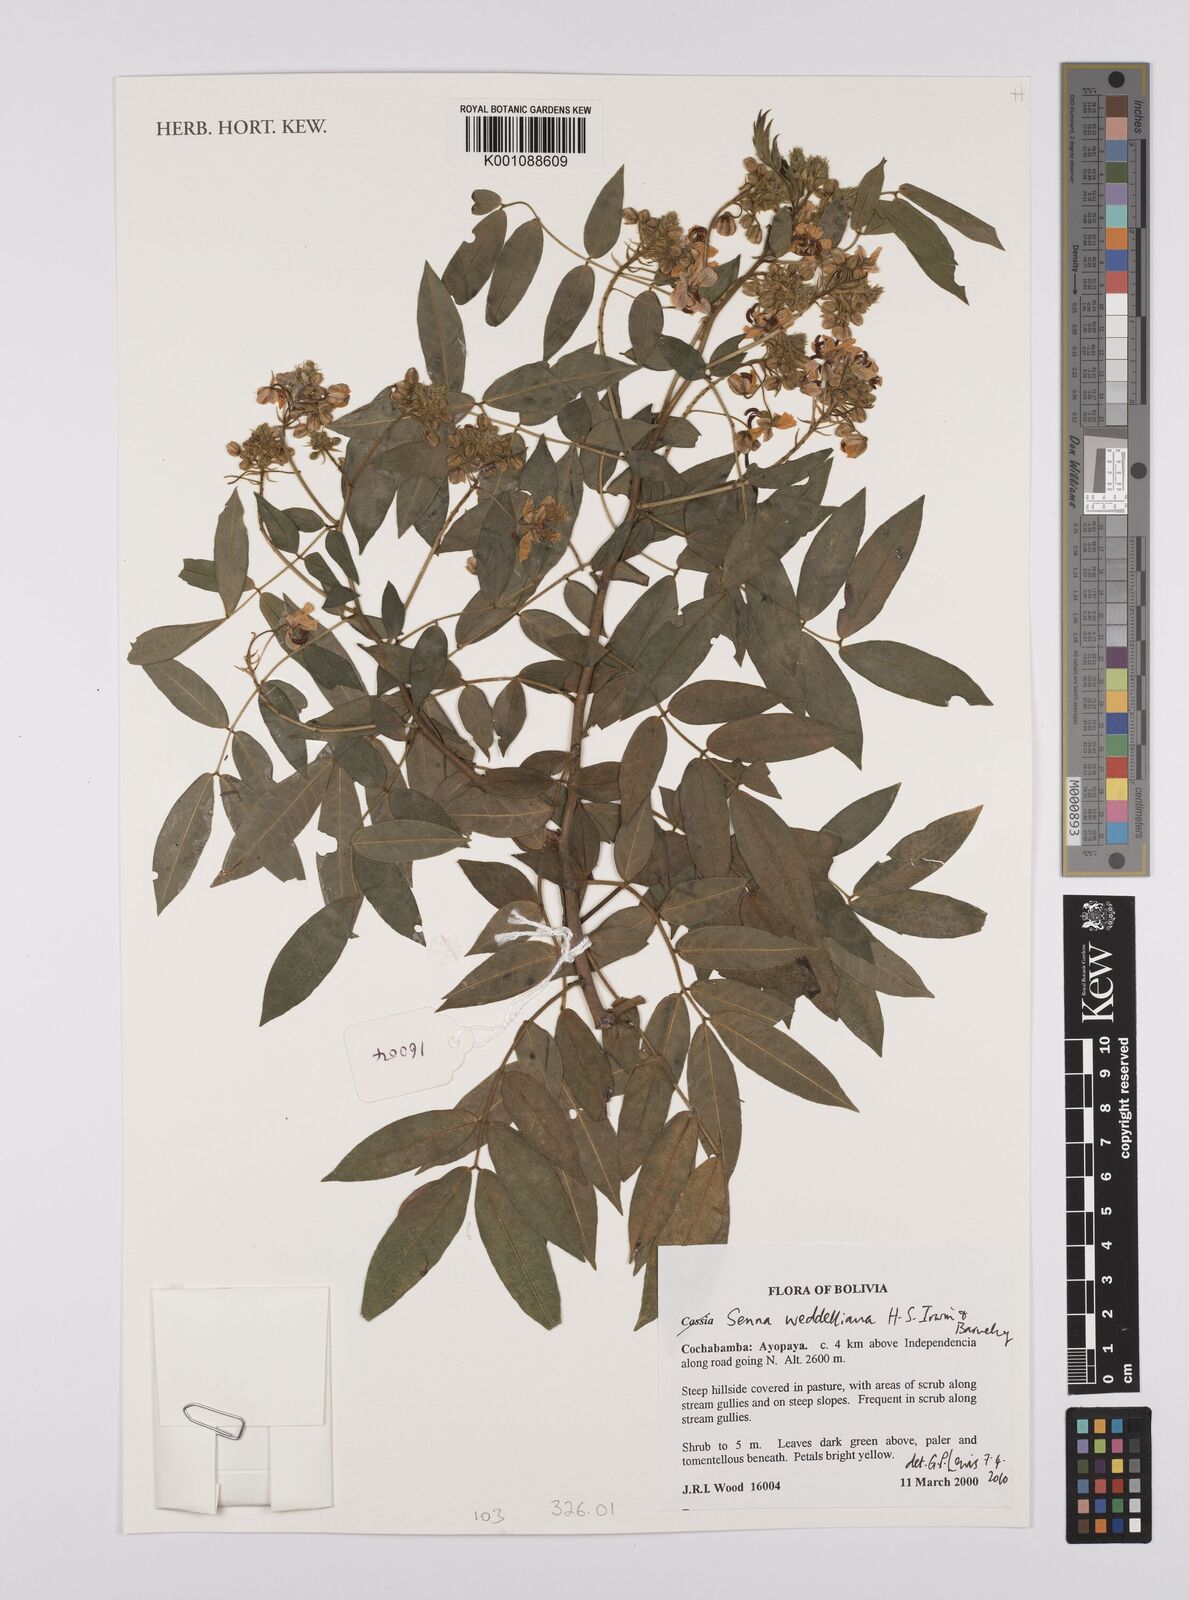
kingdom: Plantae
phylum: Tracheophyta
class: Magnoliopsida
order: Fabales
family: Fabaceae
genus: Senna
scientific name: Senna weddelliana
